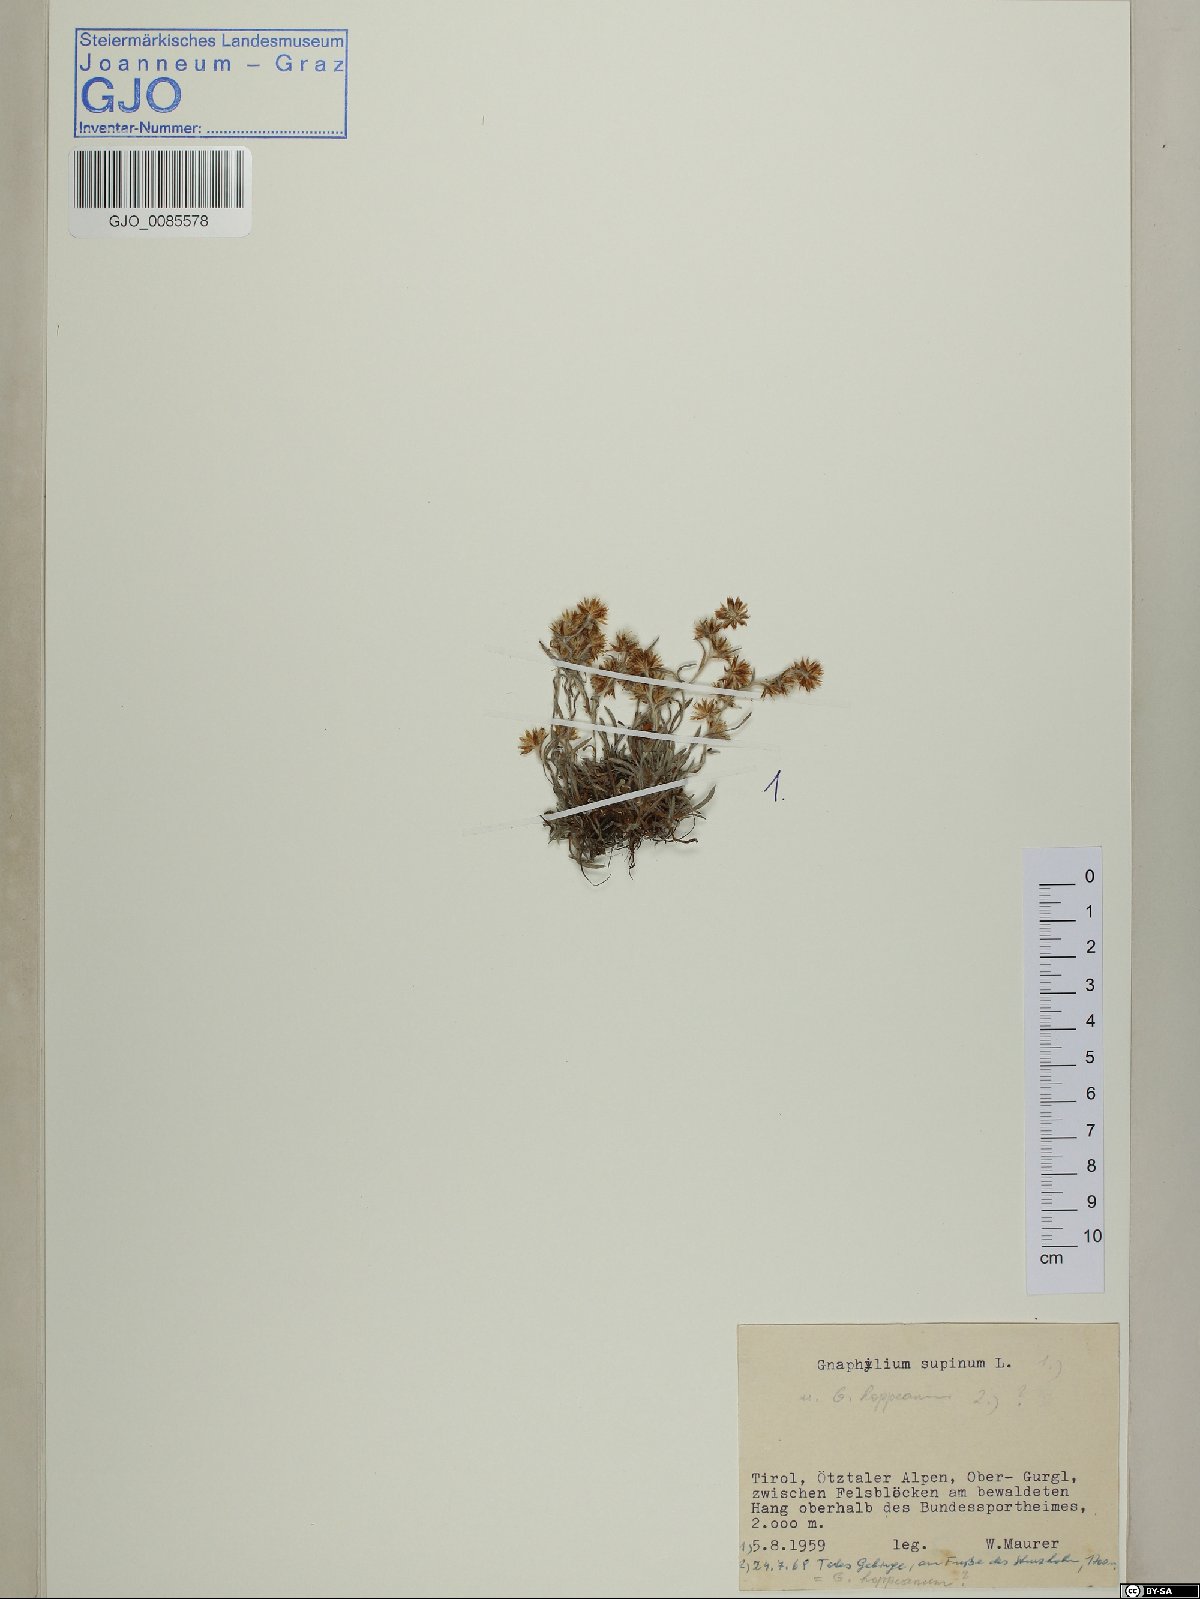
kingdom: Plantae
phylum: Tracheophyta
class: Magnoliopsida
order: Asterales
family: Asteraceae
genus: Omalotheca
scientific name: Omalotheca supina
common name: Alpine arctic-cudweed
